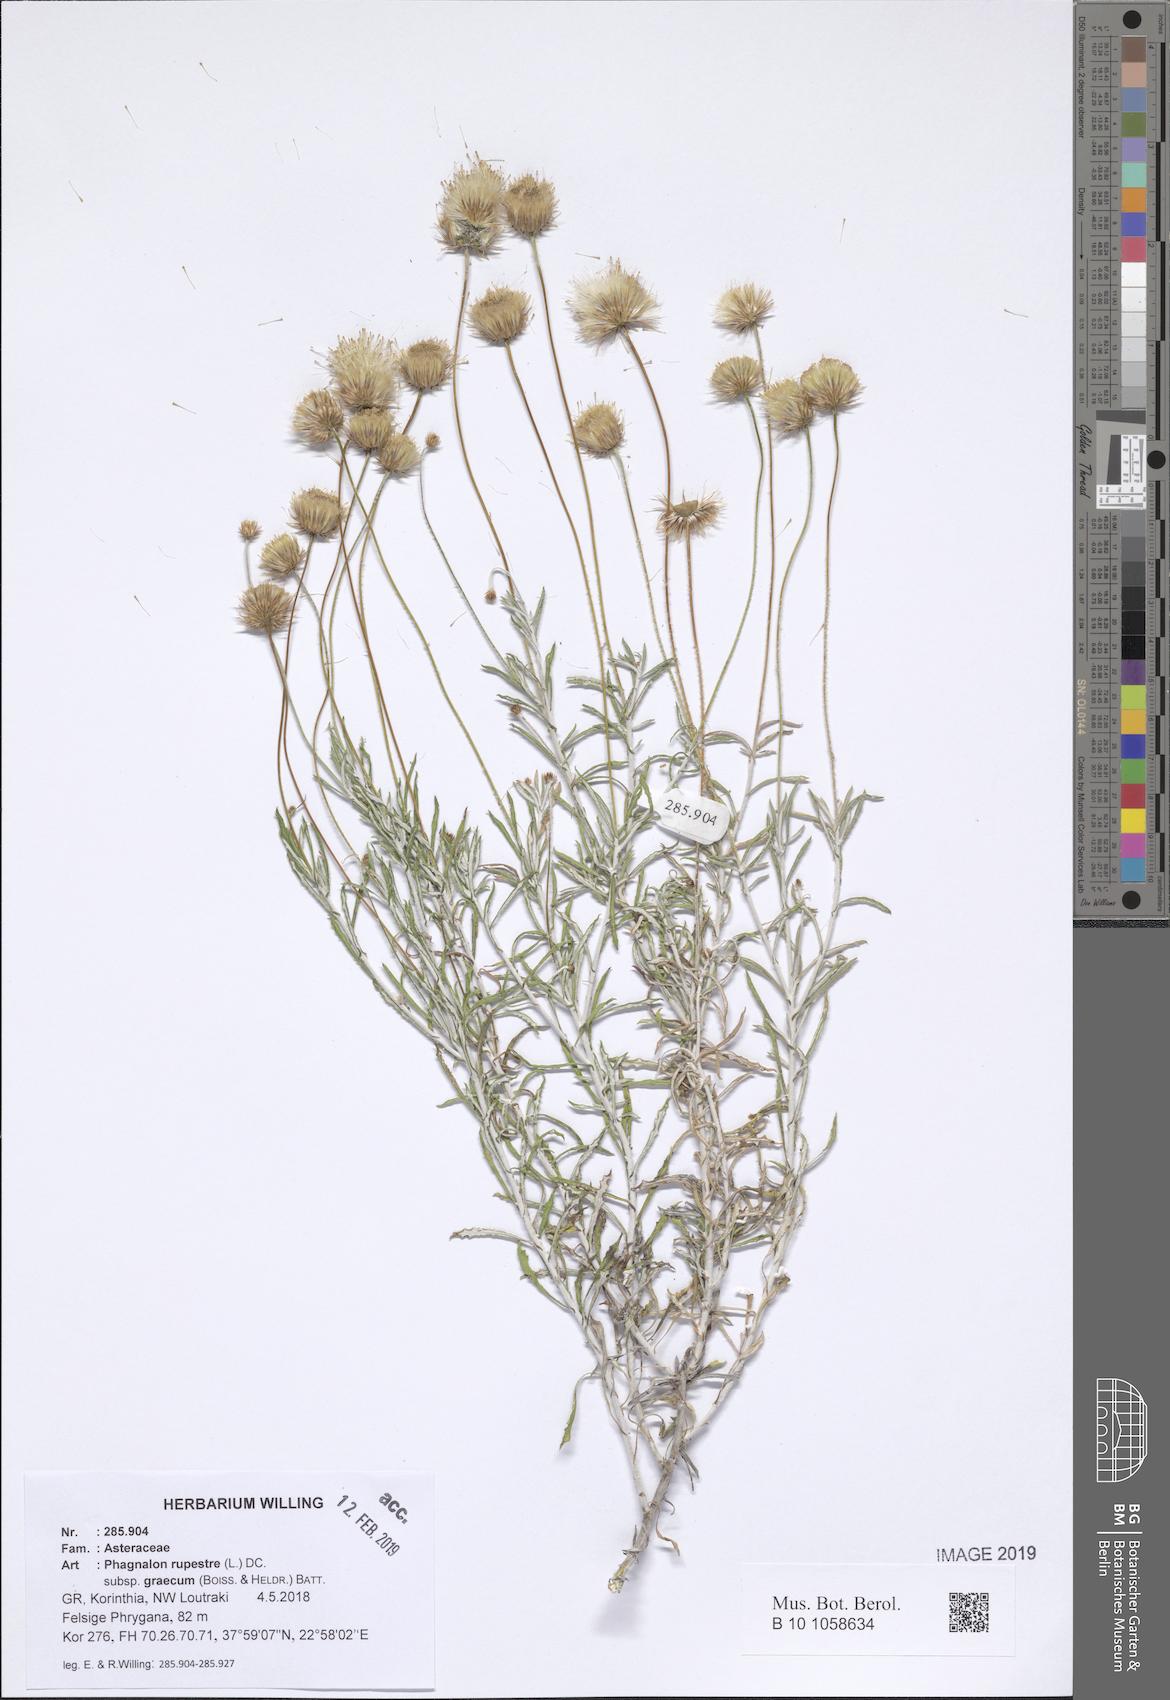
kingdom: Plantae
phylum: Tracheophyta
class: Magnoliopsida
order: Asterales
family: Asteraceae
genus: Phagnalon
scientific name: Phagnalon graecum
